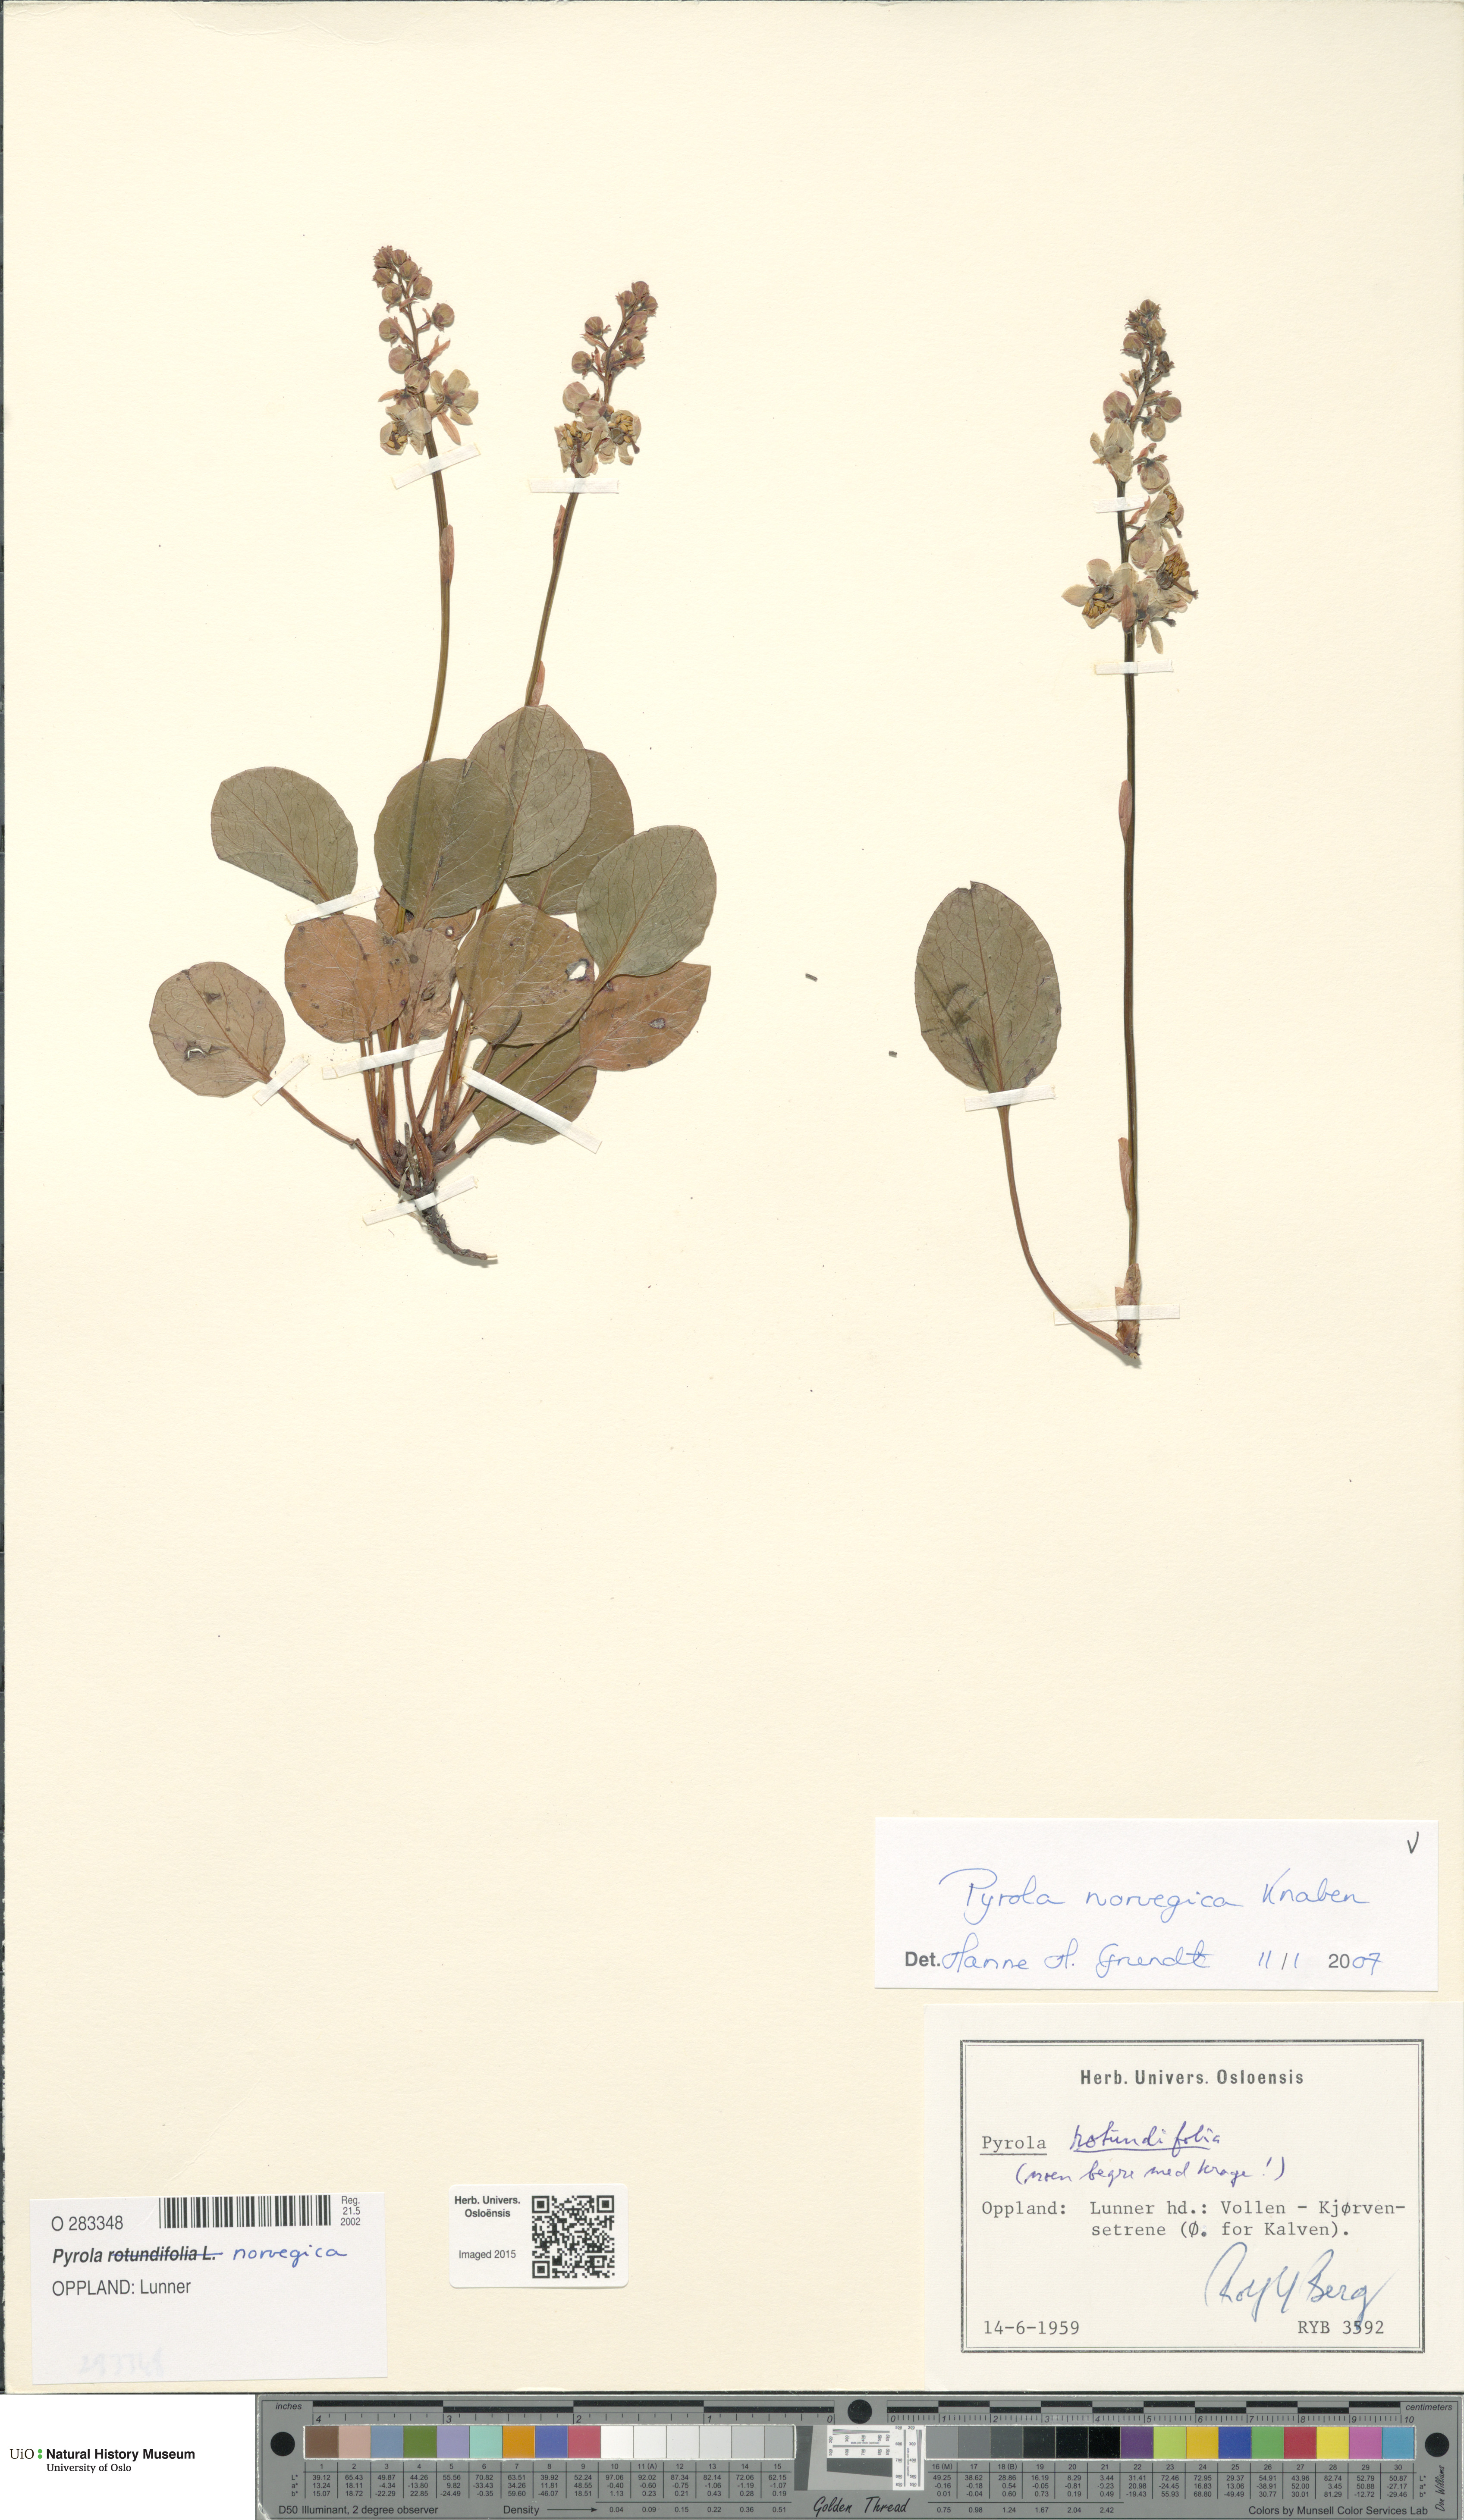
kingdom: Plantae
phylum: Tracheophyta
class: Magnoliopsida
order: Ericales
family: Ericaceae
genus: Pyrola
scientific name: Pyrola rotundifolia
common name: Round-leaved wintergreen
